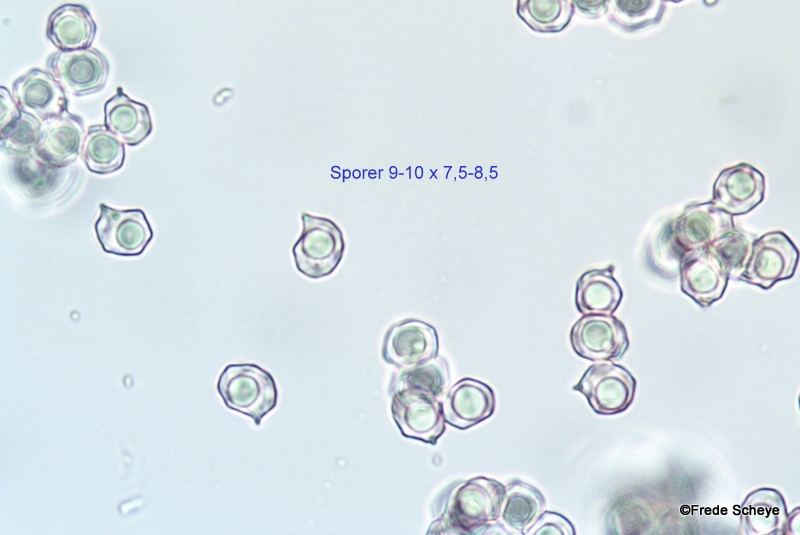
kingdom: Fungi
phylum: Basidiomycota
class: Agaricomycetes
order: Agaricales
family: Entolomataceae
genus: Entoloma
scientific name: Entoloma sericatum
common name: rank rødblad
